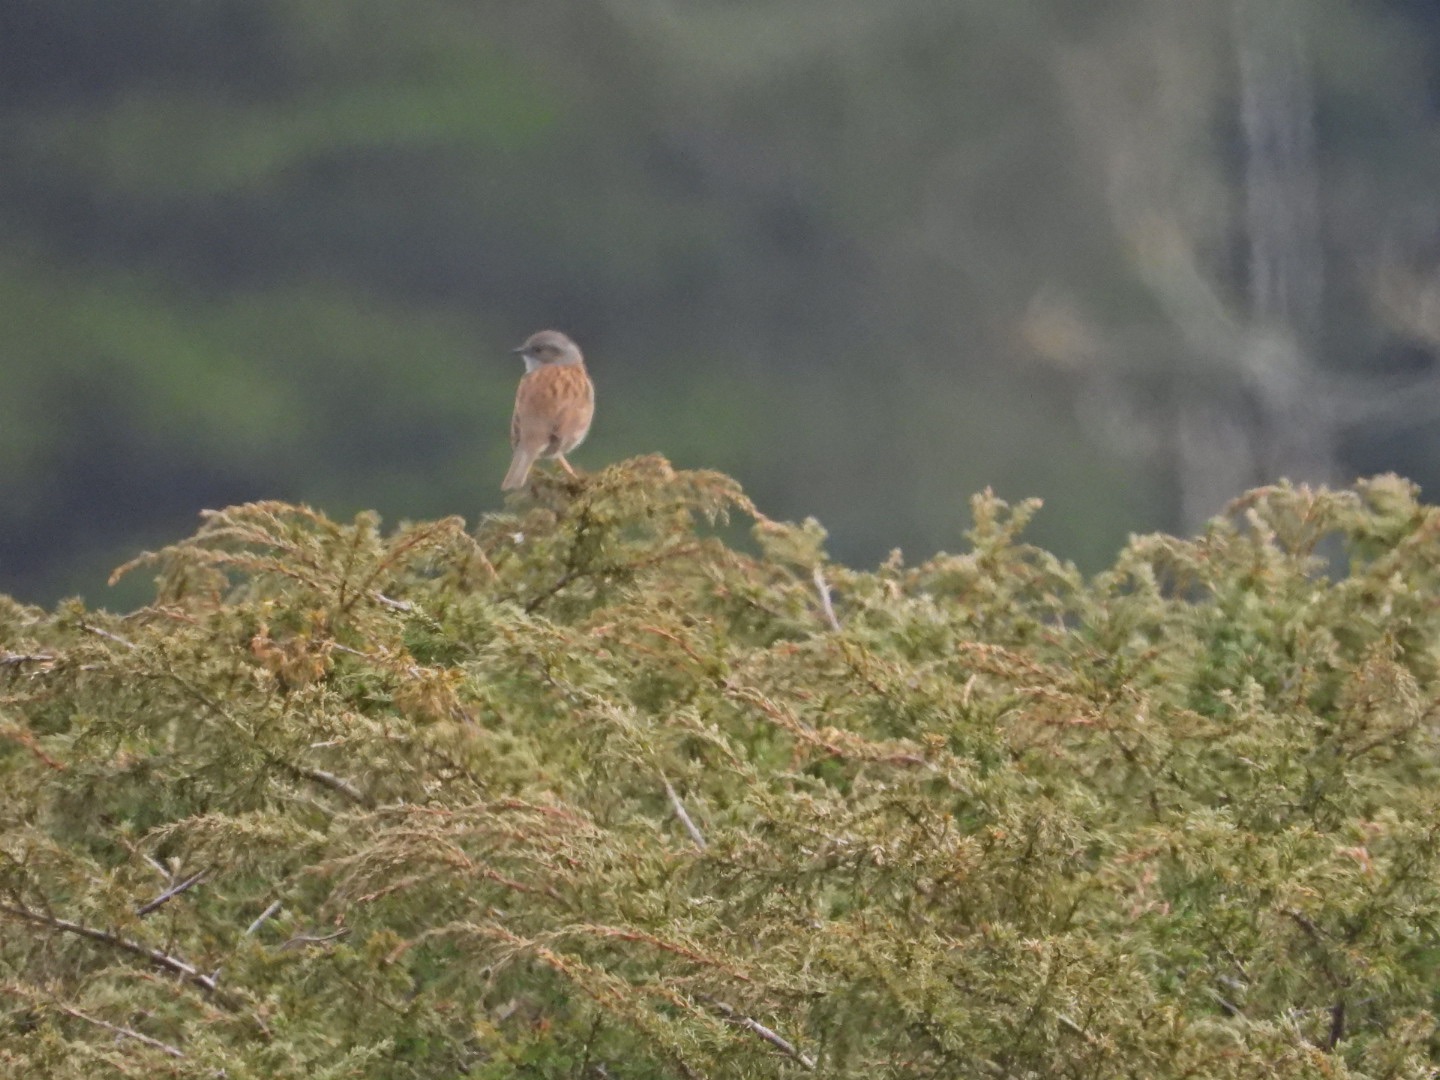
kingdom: Animalia
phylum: Chordata
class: Aves
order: Passeriformes
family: Prunellidae
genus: Prunella
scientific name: Prunella modularis
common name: Jernspurv
